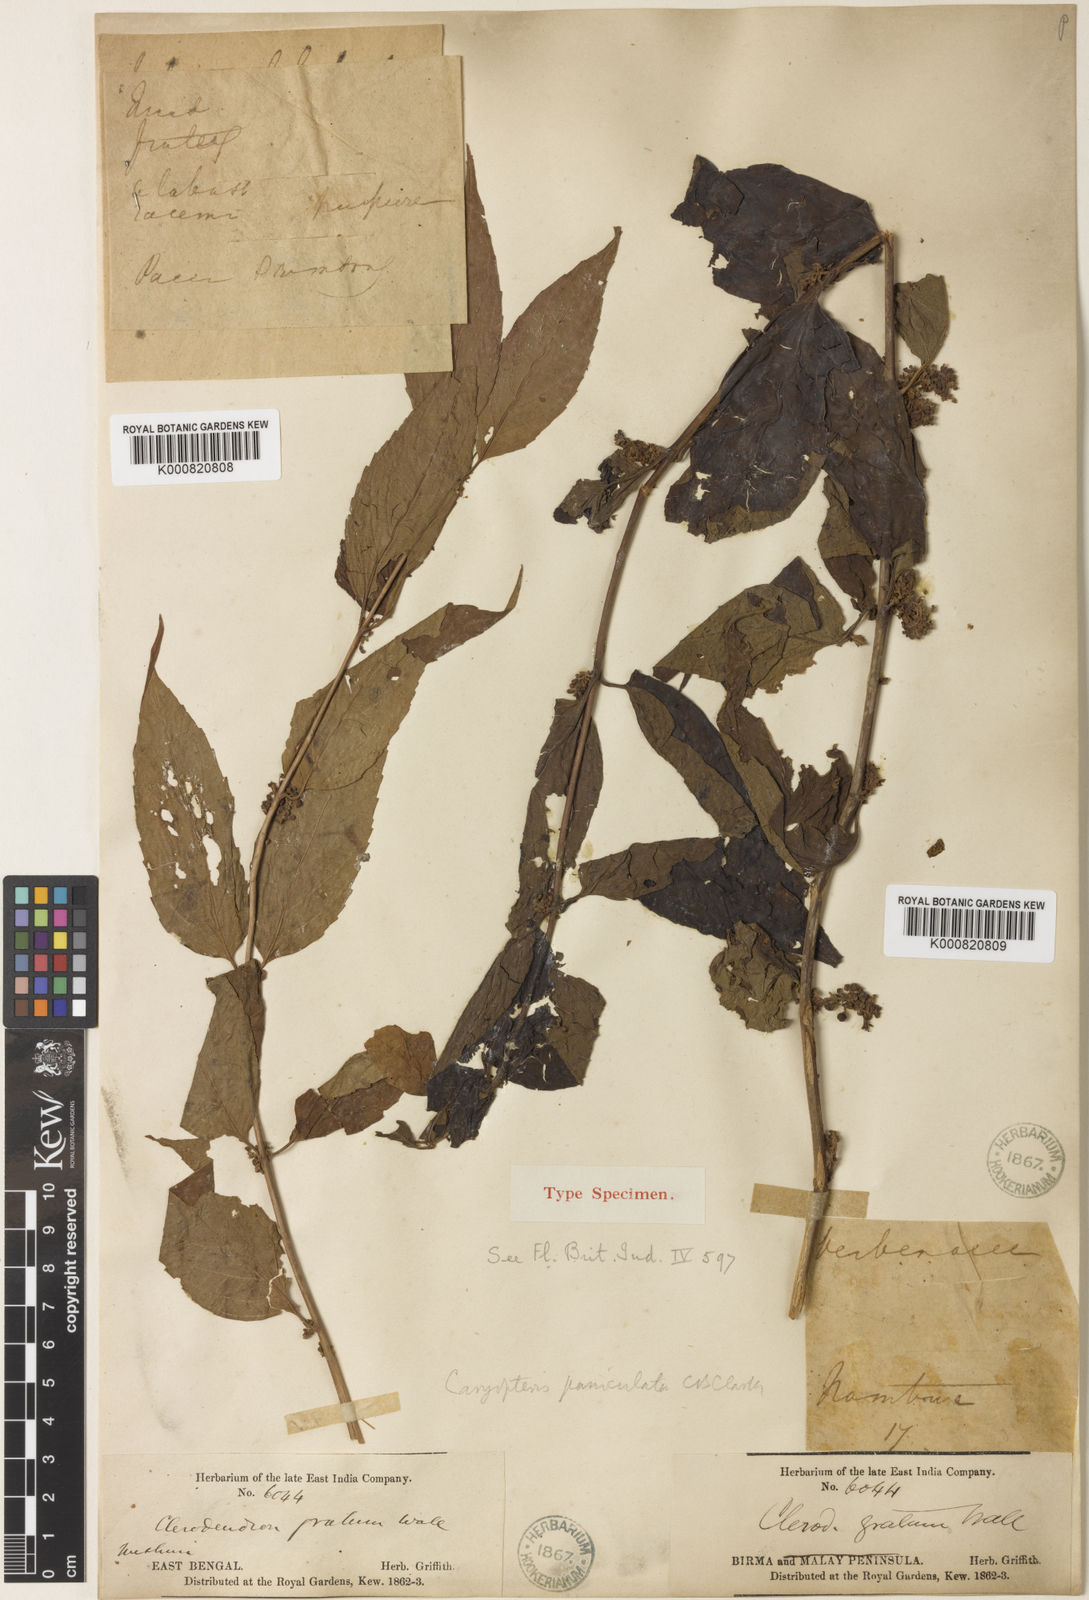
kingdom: Plantae
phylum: Tracheophyta
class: Magnoliopsida
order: Lamiales
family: Lamiaceae
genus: Pseudocaryopteris
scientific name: Pseudocaryopteris foetida
